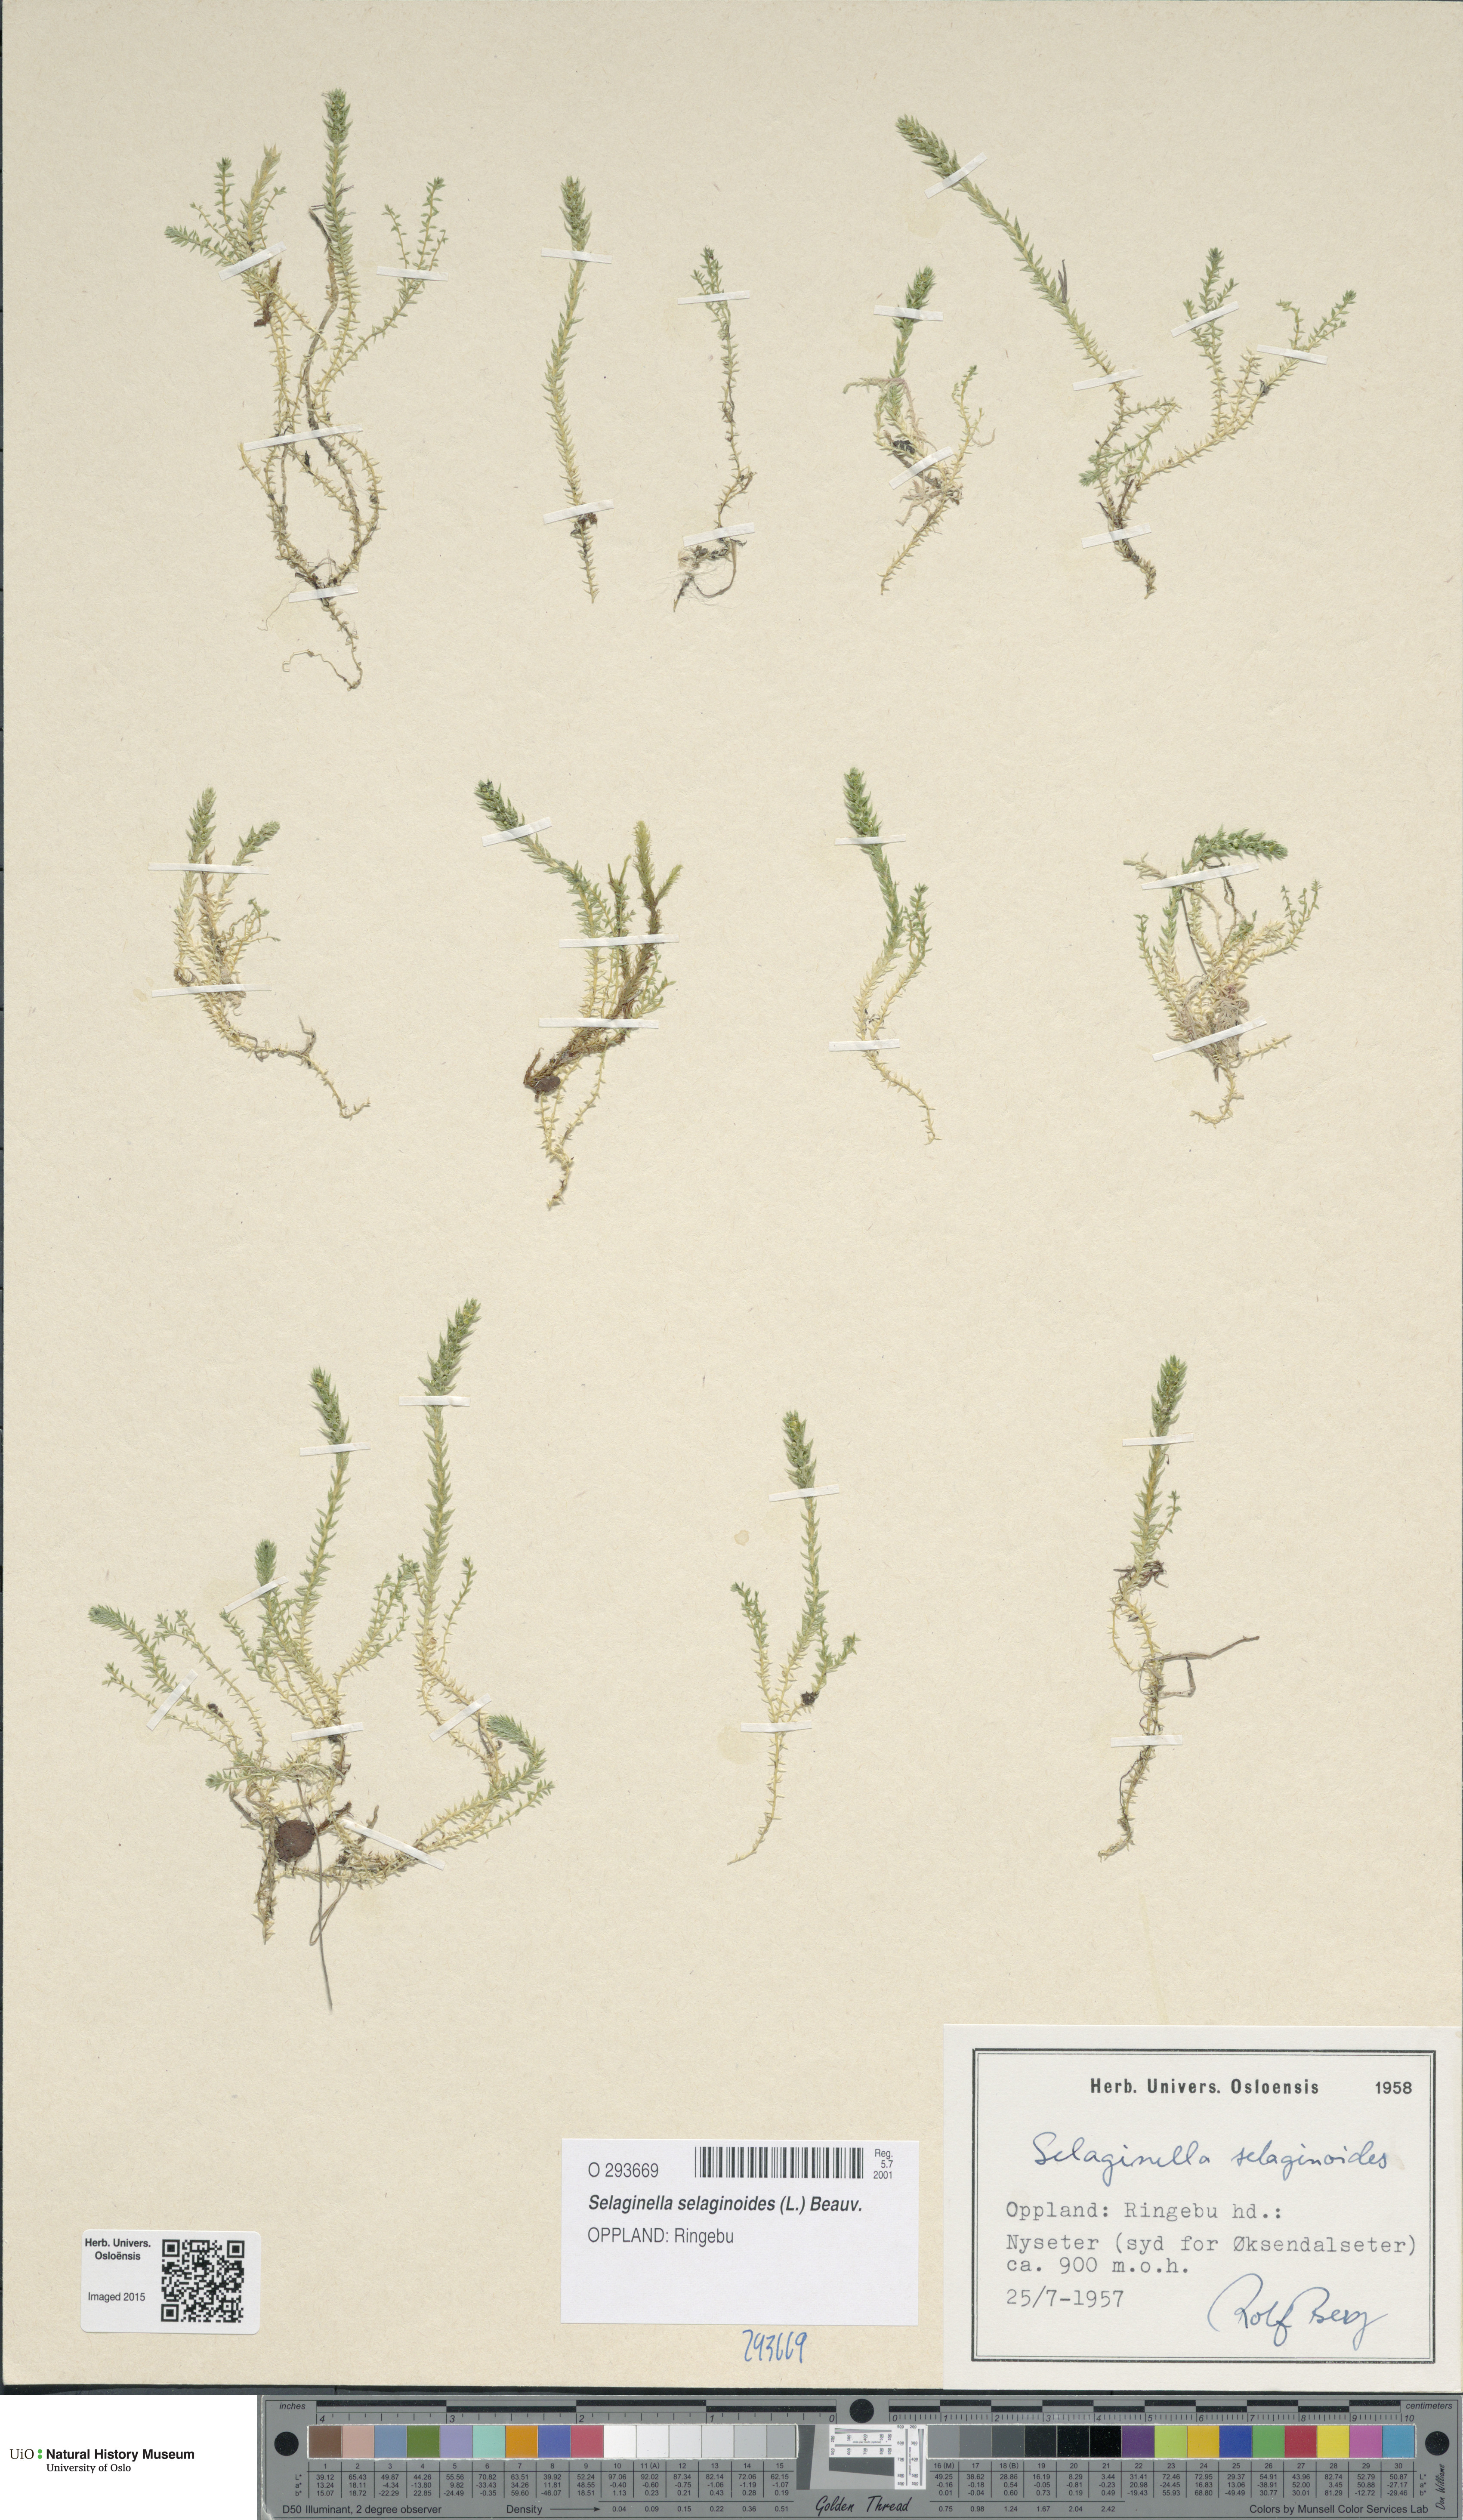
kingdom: Plantae
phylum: Tracheophyta
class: Lycopodiopsida
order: Selaginellales
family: Selaginellaceae
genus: Selaginella
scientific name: Selaginella selaginoides
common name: Prickly mountain-moss
